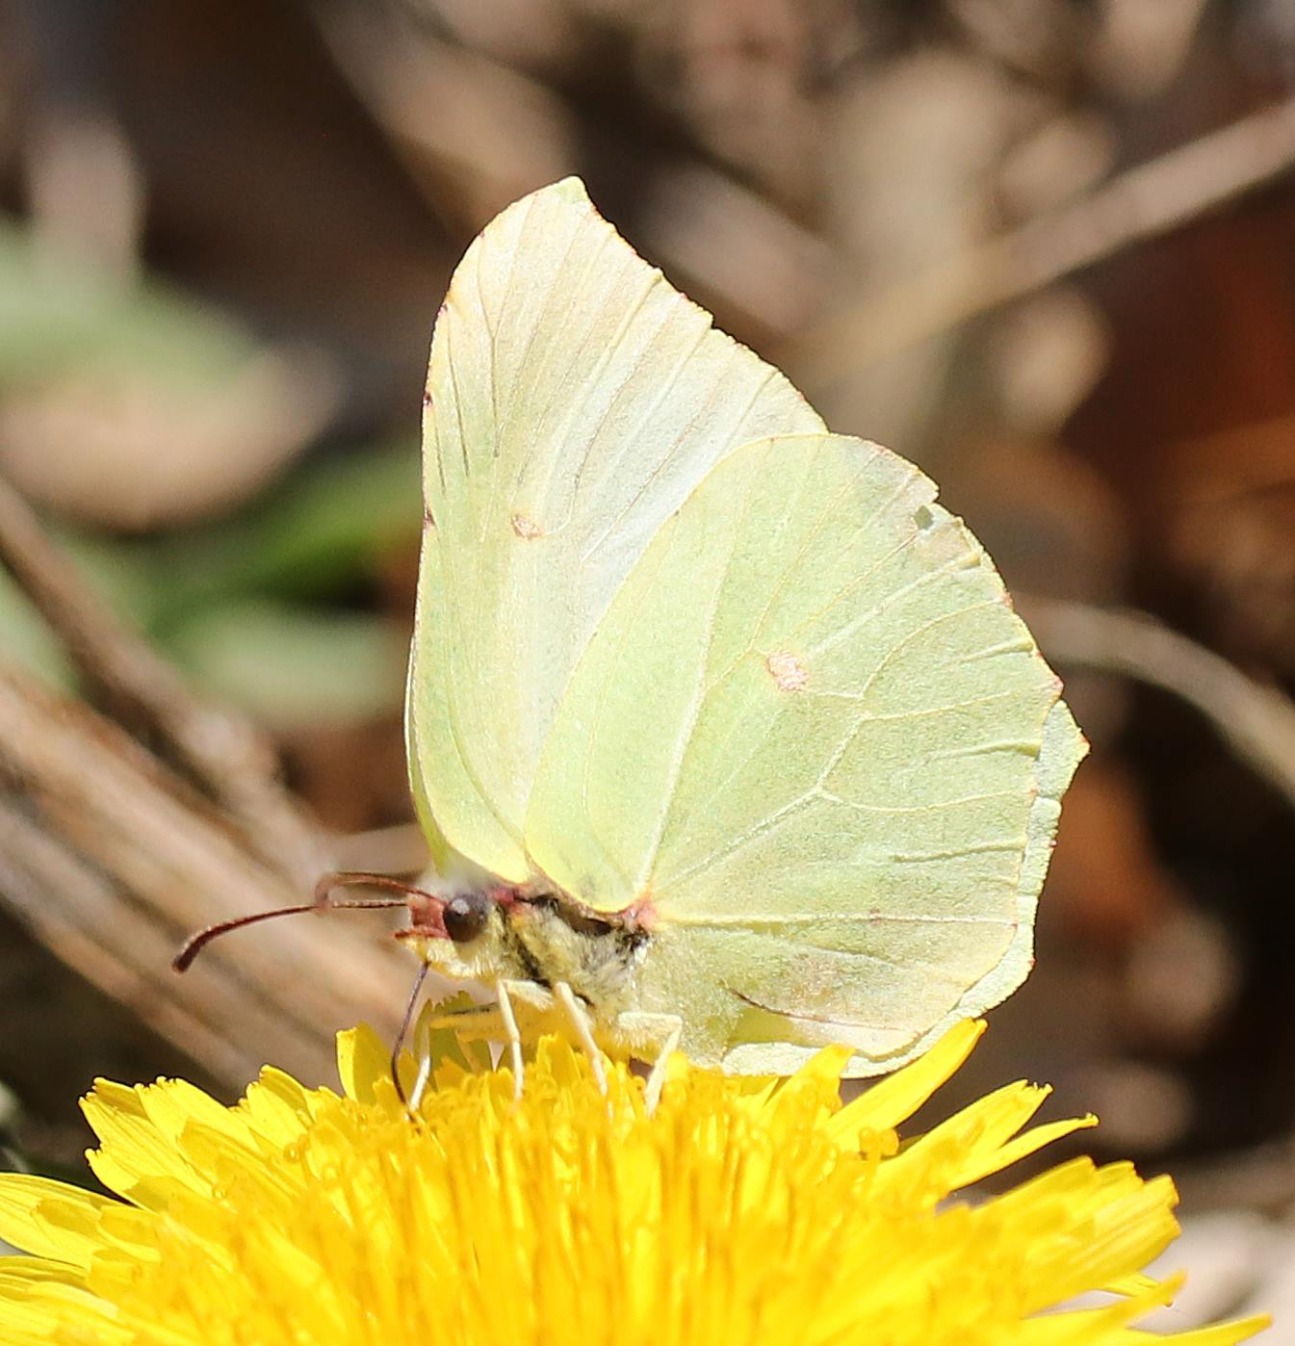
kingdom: Animalia
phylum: Arthropoda
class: Insecta
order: Lepidoptera
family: Pieridae
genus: Gonepteryx
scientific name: Gonepteryx rhamni
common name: Citronsommerfugl
